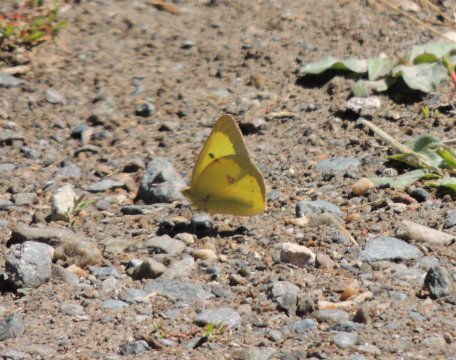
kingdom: Animalia
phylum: Arthropoda
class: Insecta
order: Lepidoptera
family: Pieridae
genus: Colias
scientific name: Colias eurytheme
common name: Orange Sulphur
